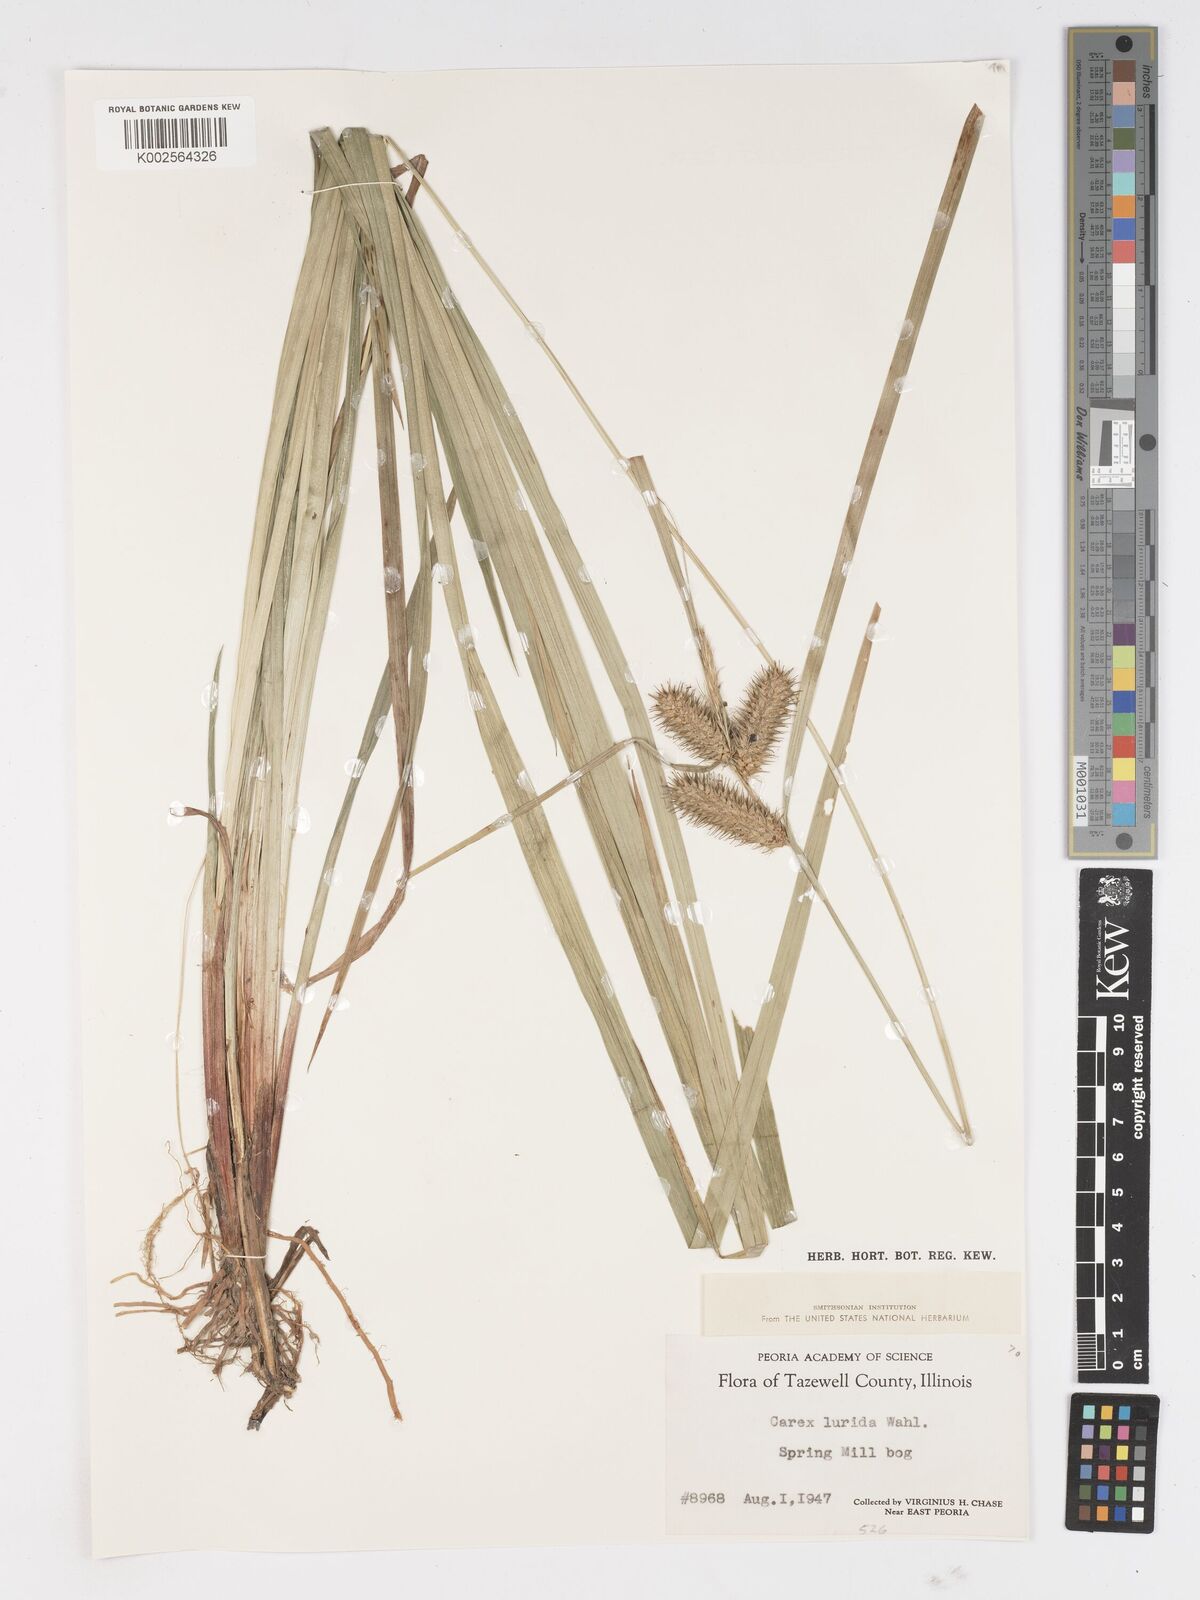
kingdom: Plantae
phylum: Tracheophyta
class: Liliopsida
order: Poales
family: Cyperaceae
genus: Carex
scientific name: Carex lurida
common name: Sallow sedge
